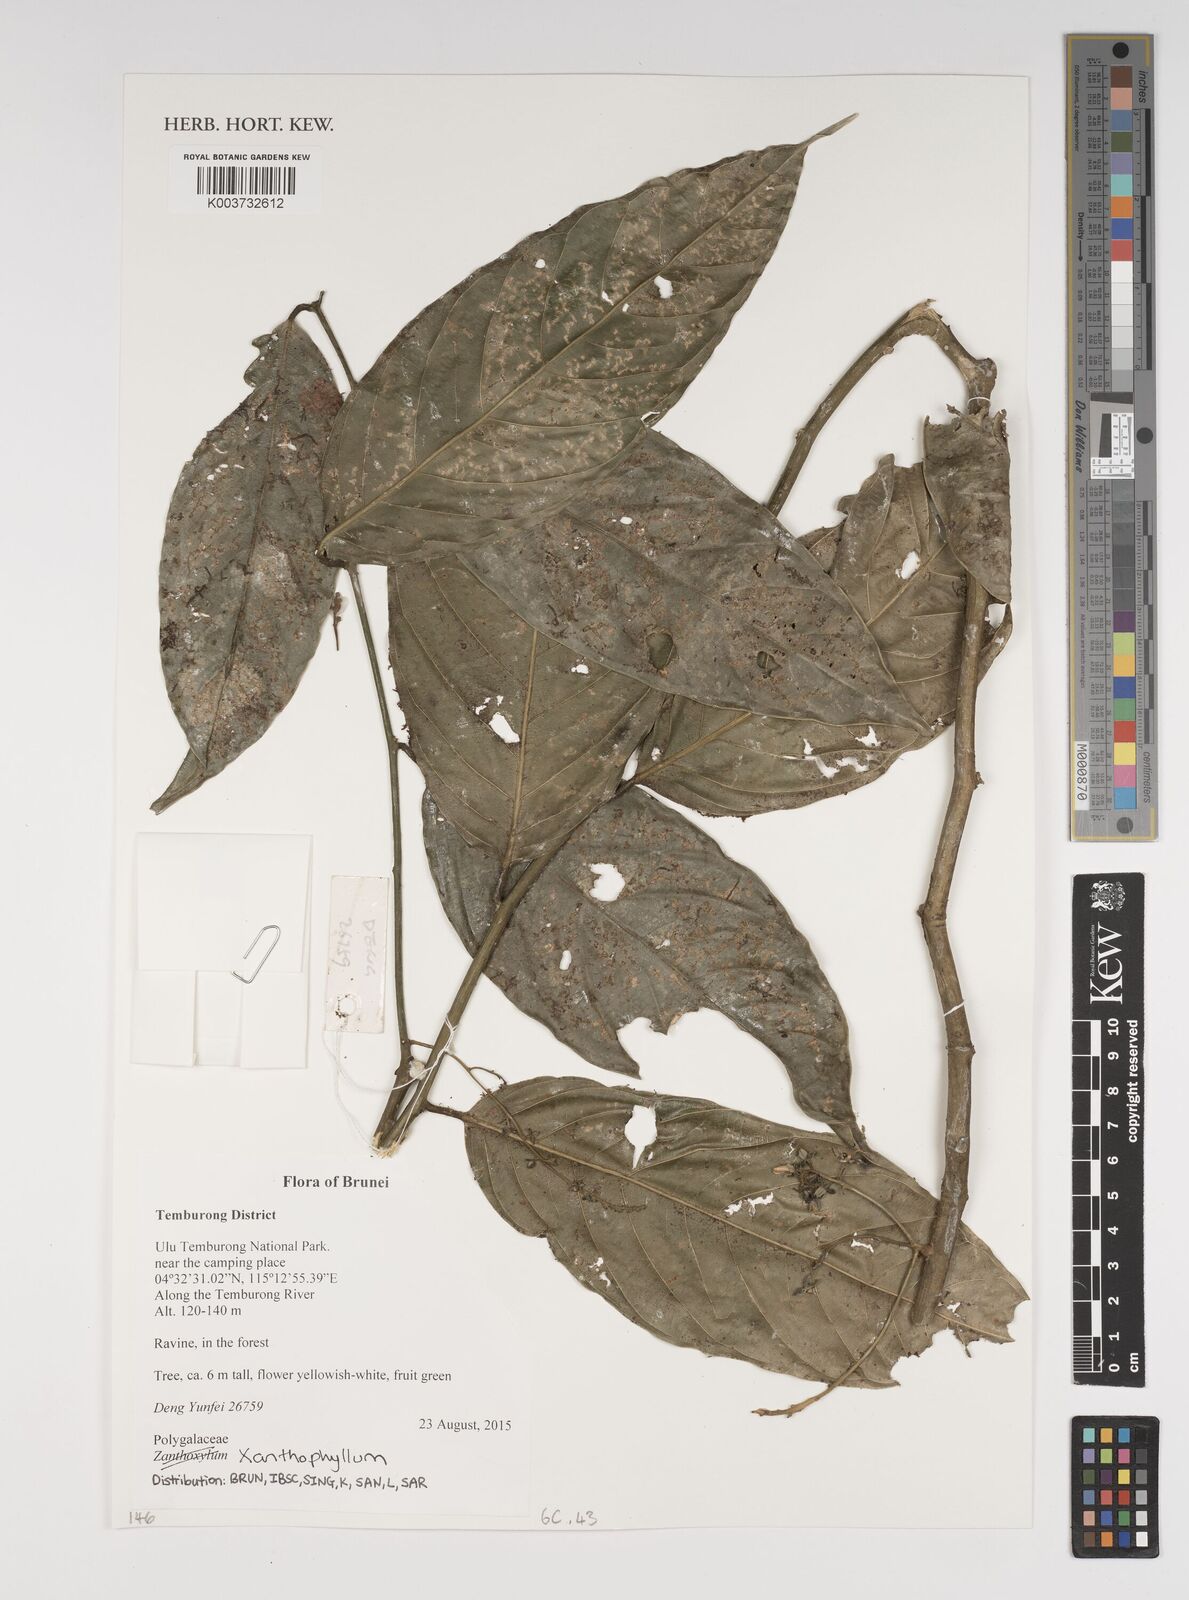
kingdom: Plantae
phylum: Tracheophyta
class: Magnoliopsida
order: Fabales
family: Polygalaceae
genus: Xanthophyllum
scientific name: Xanthophyllum
